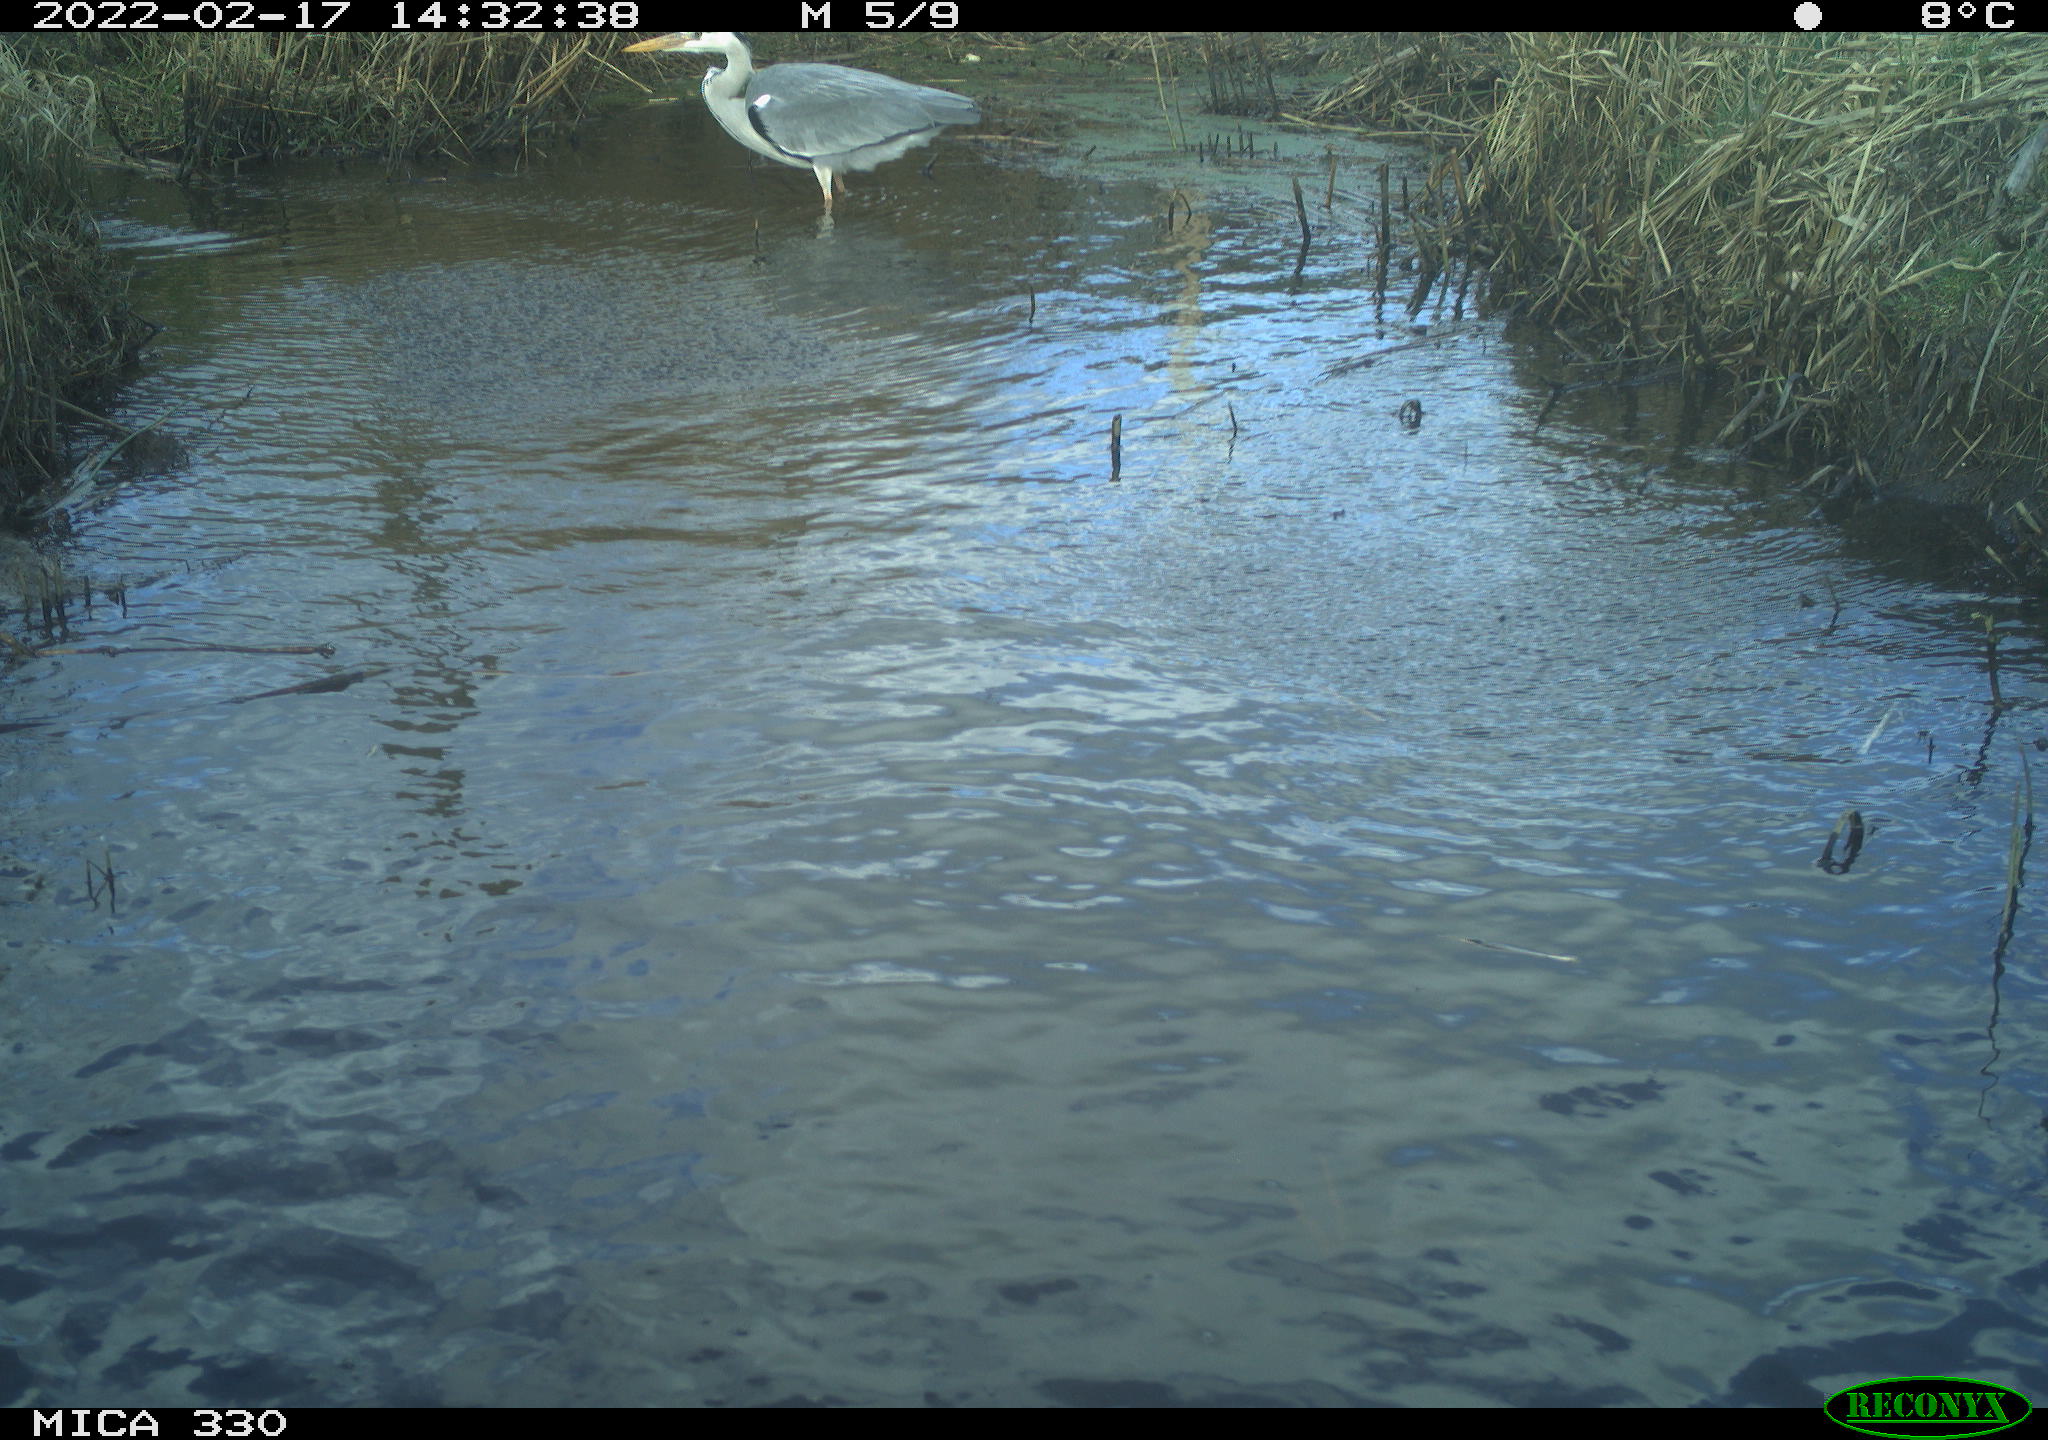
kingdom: Animalia
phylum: Chordata
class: Aves
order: Pelecaniformes
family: Ardeidae
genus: Ardea
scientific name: Ardea cinerea
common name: Grey heron
